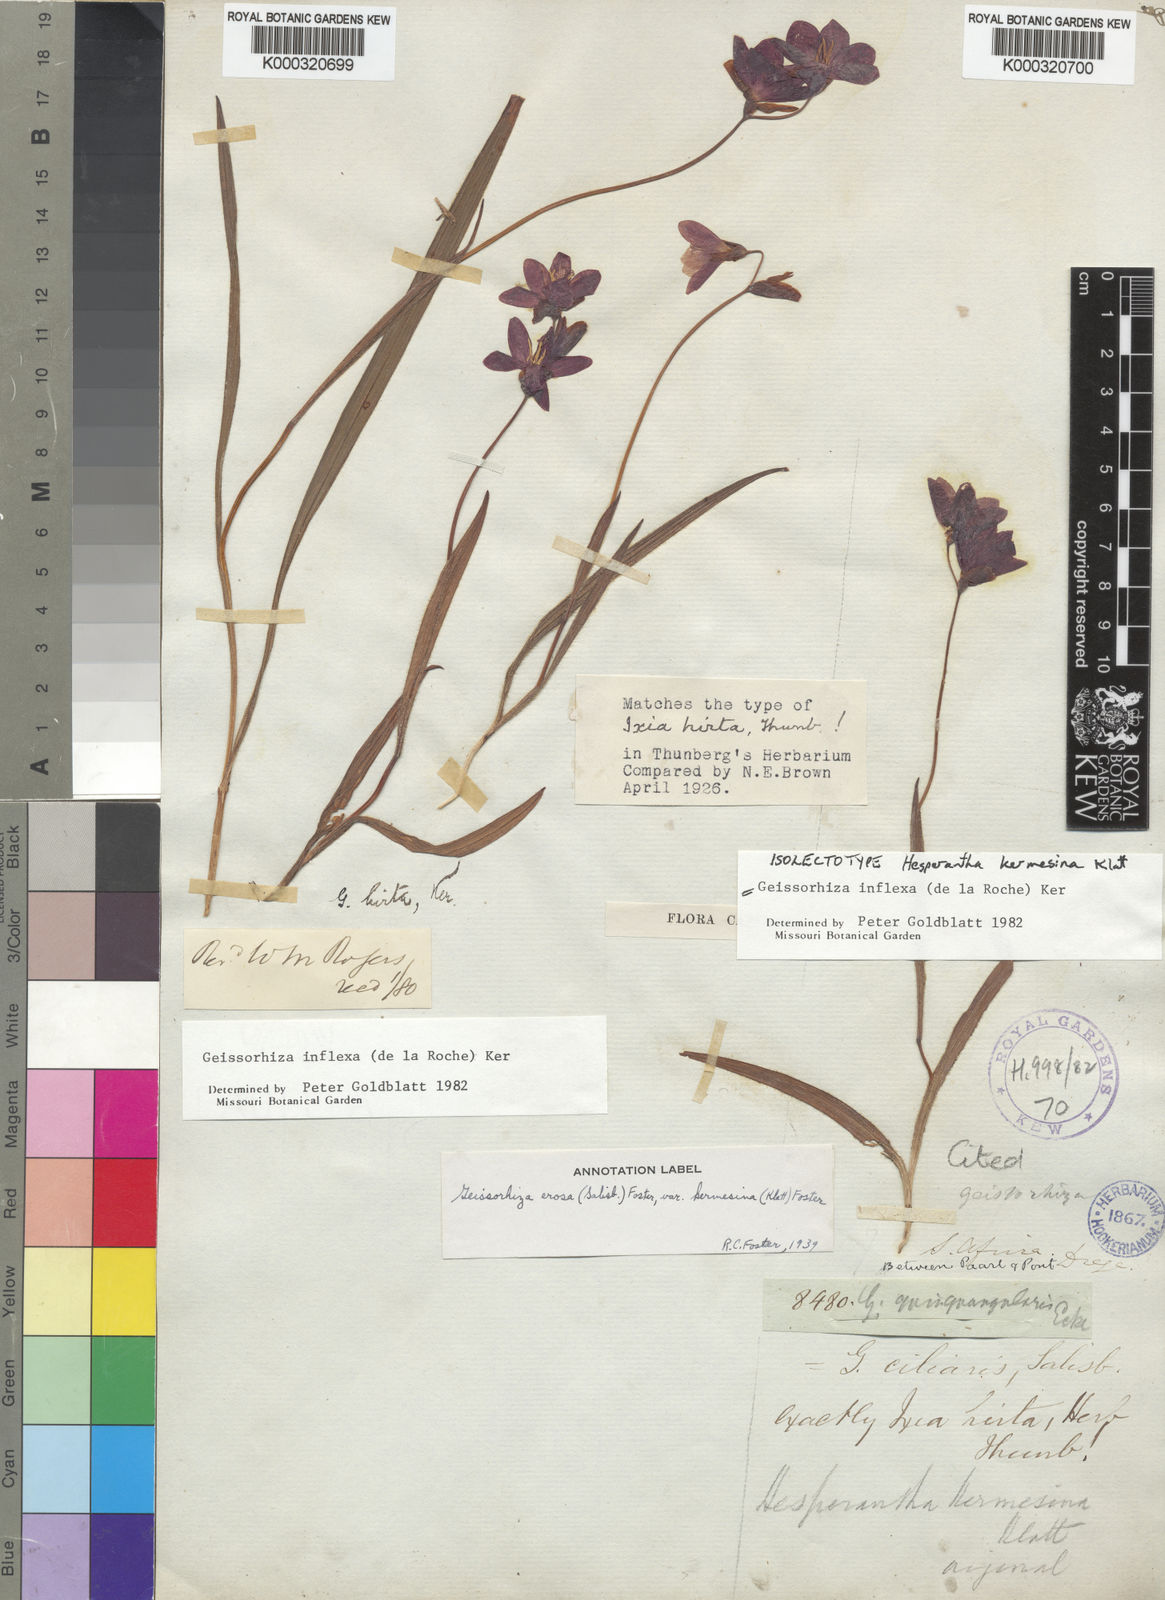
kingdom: Plantae
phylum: Tracheophyta
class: Liliopsida
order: Asparagales
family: Iridaceae
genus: Geissorhiza
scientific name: Geissorhiza inflexa
